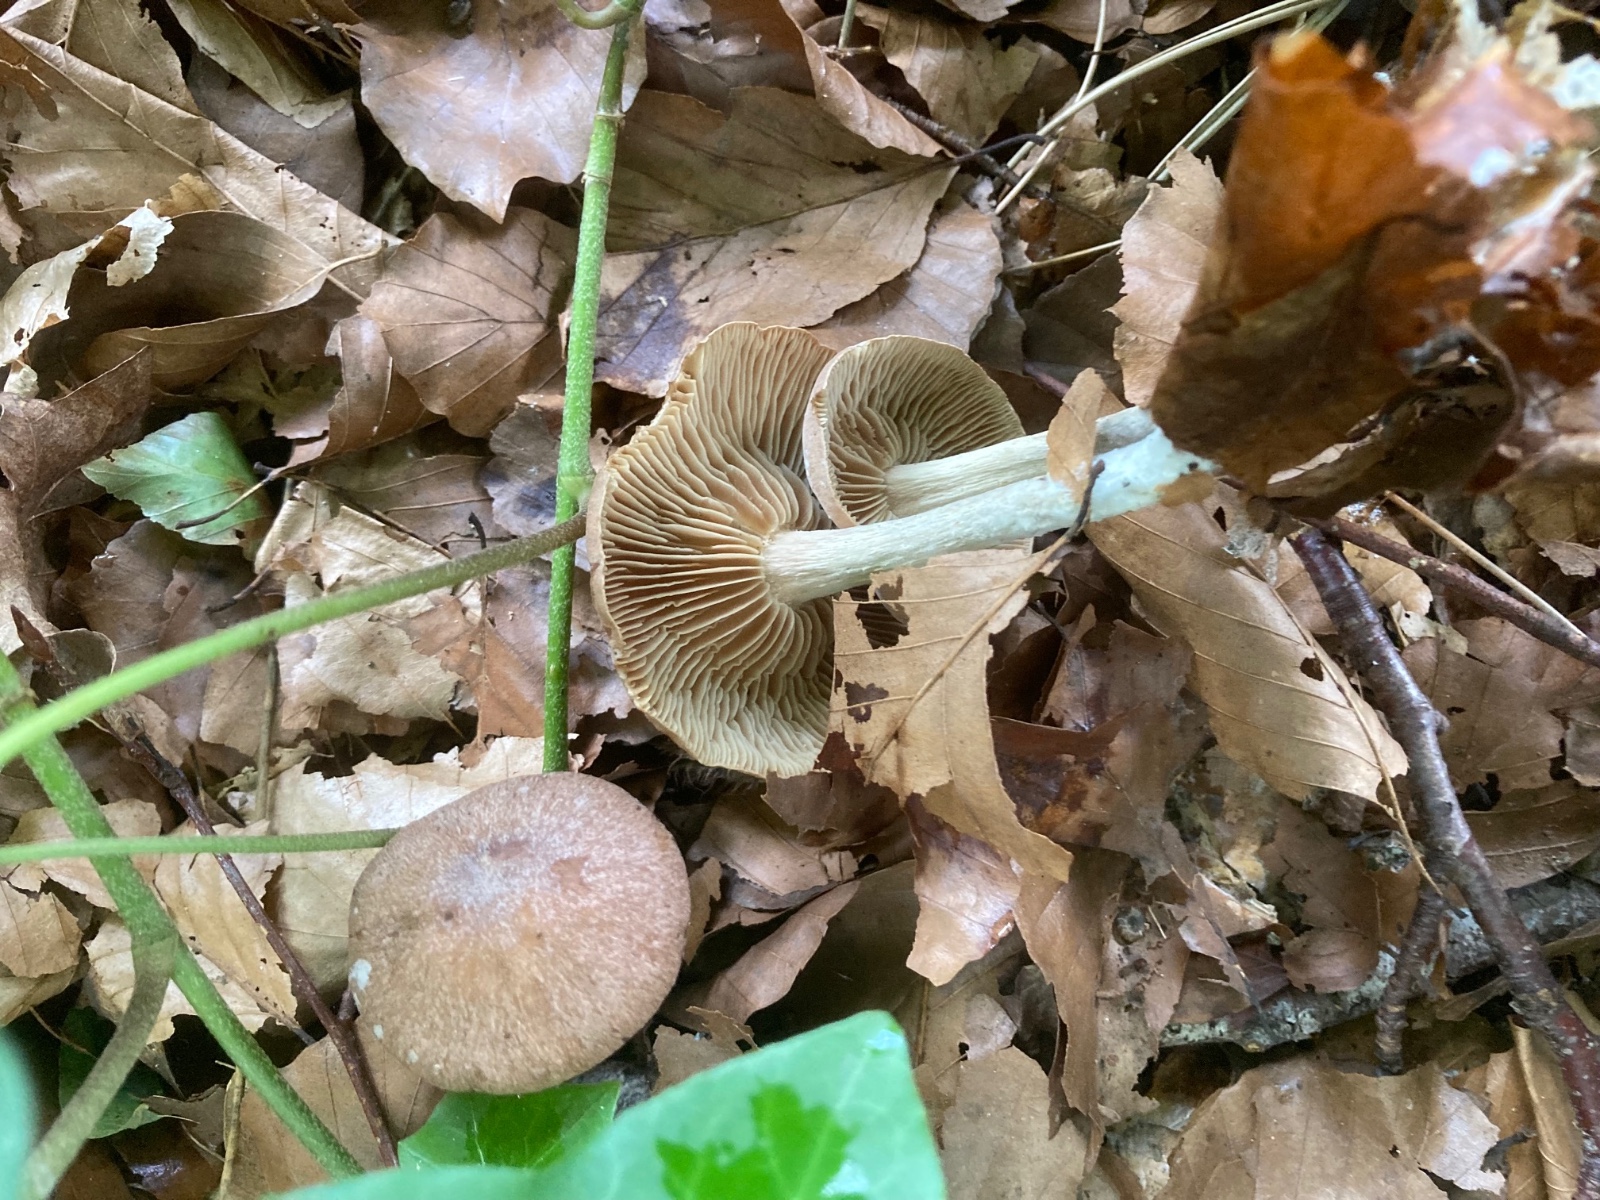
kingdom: Fungi
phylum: Basidiomycota
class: Agaricomycetes
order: Agaricales
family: Omphalotaceae
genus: Collybiopsis
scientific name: Collybiopsis peronata
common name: bestøvlet fladhat
